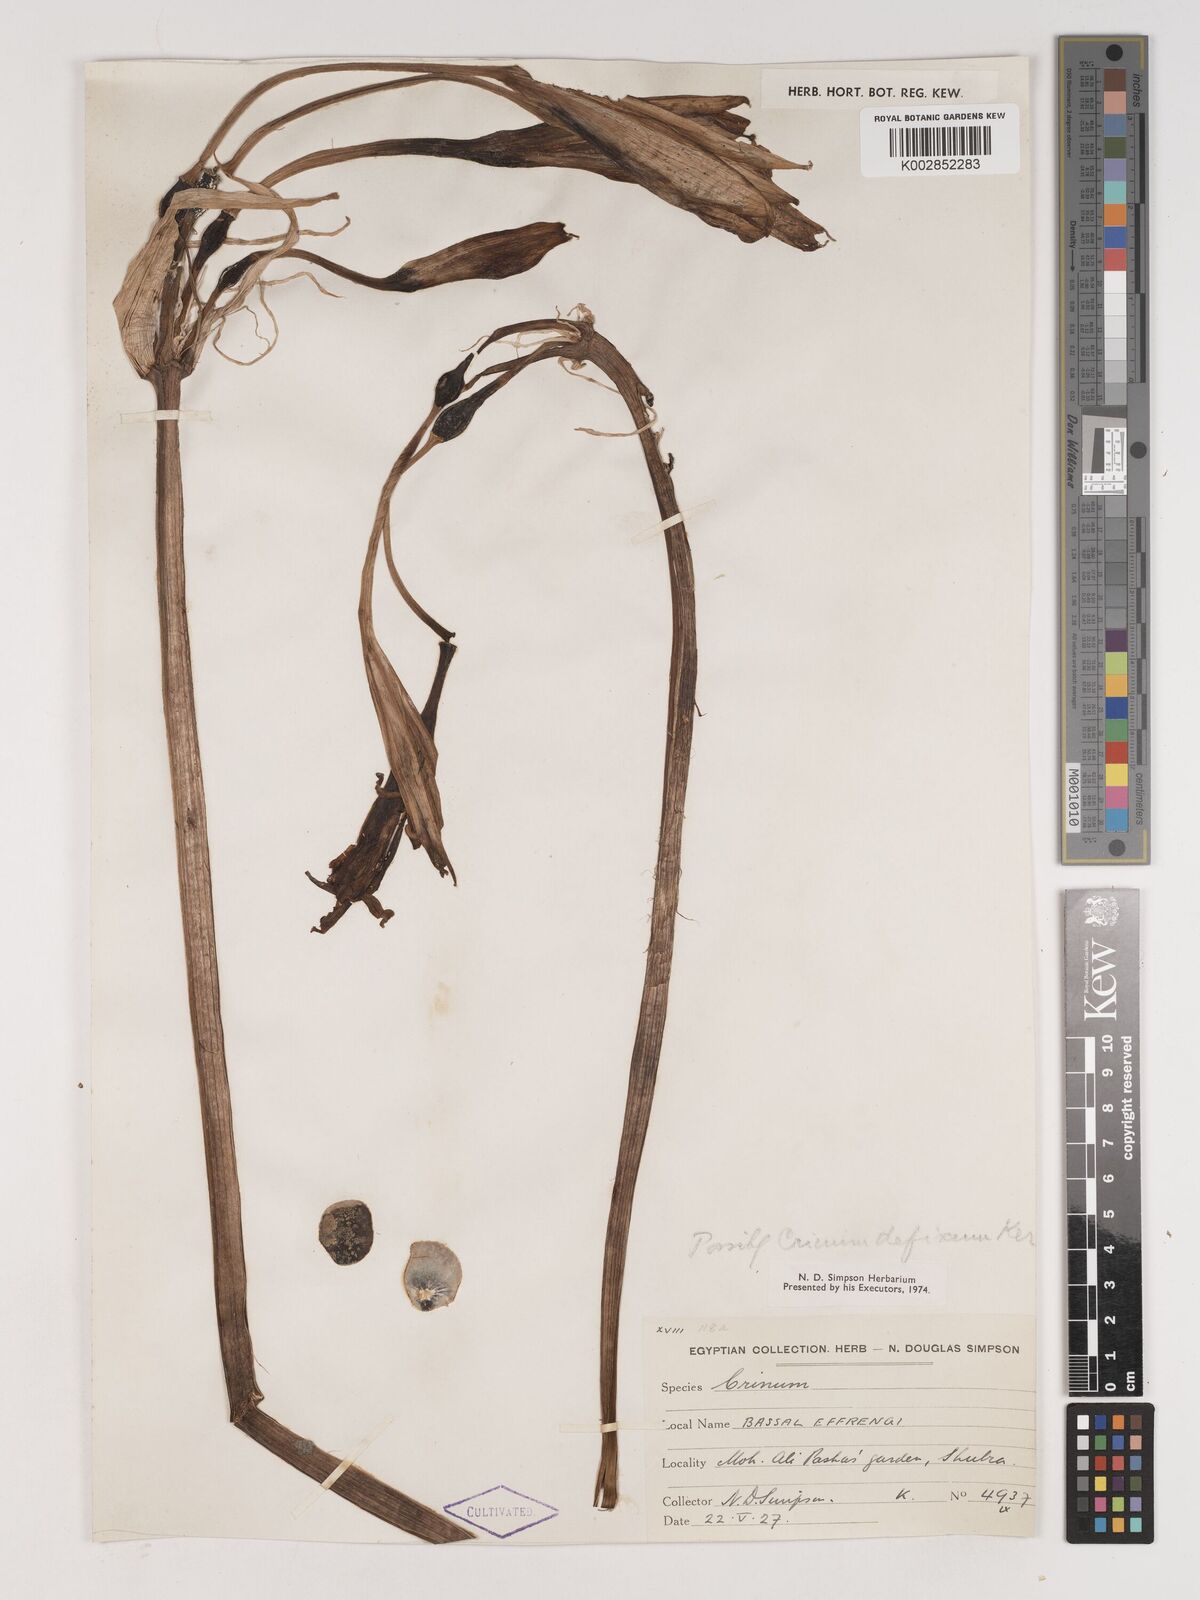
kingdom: Plantae
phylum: Tracheophyta
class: Liliopsida
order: Asparagales
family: Amaryllidaceae
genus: Crinum
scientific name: Crinum
